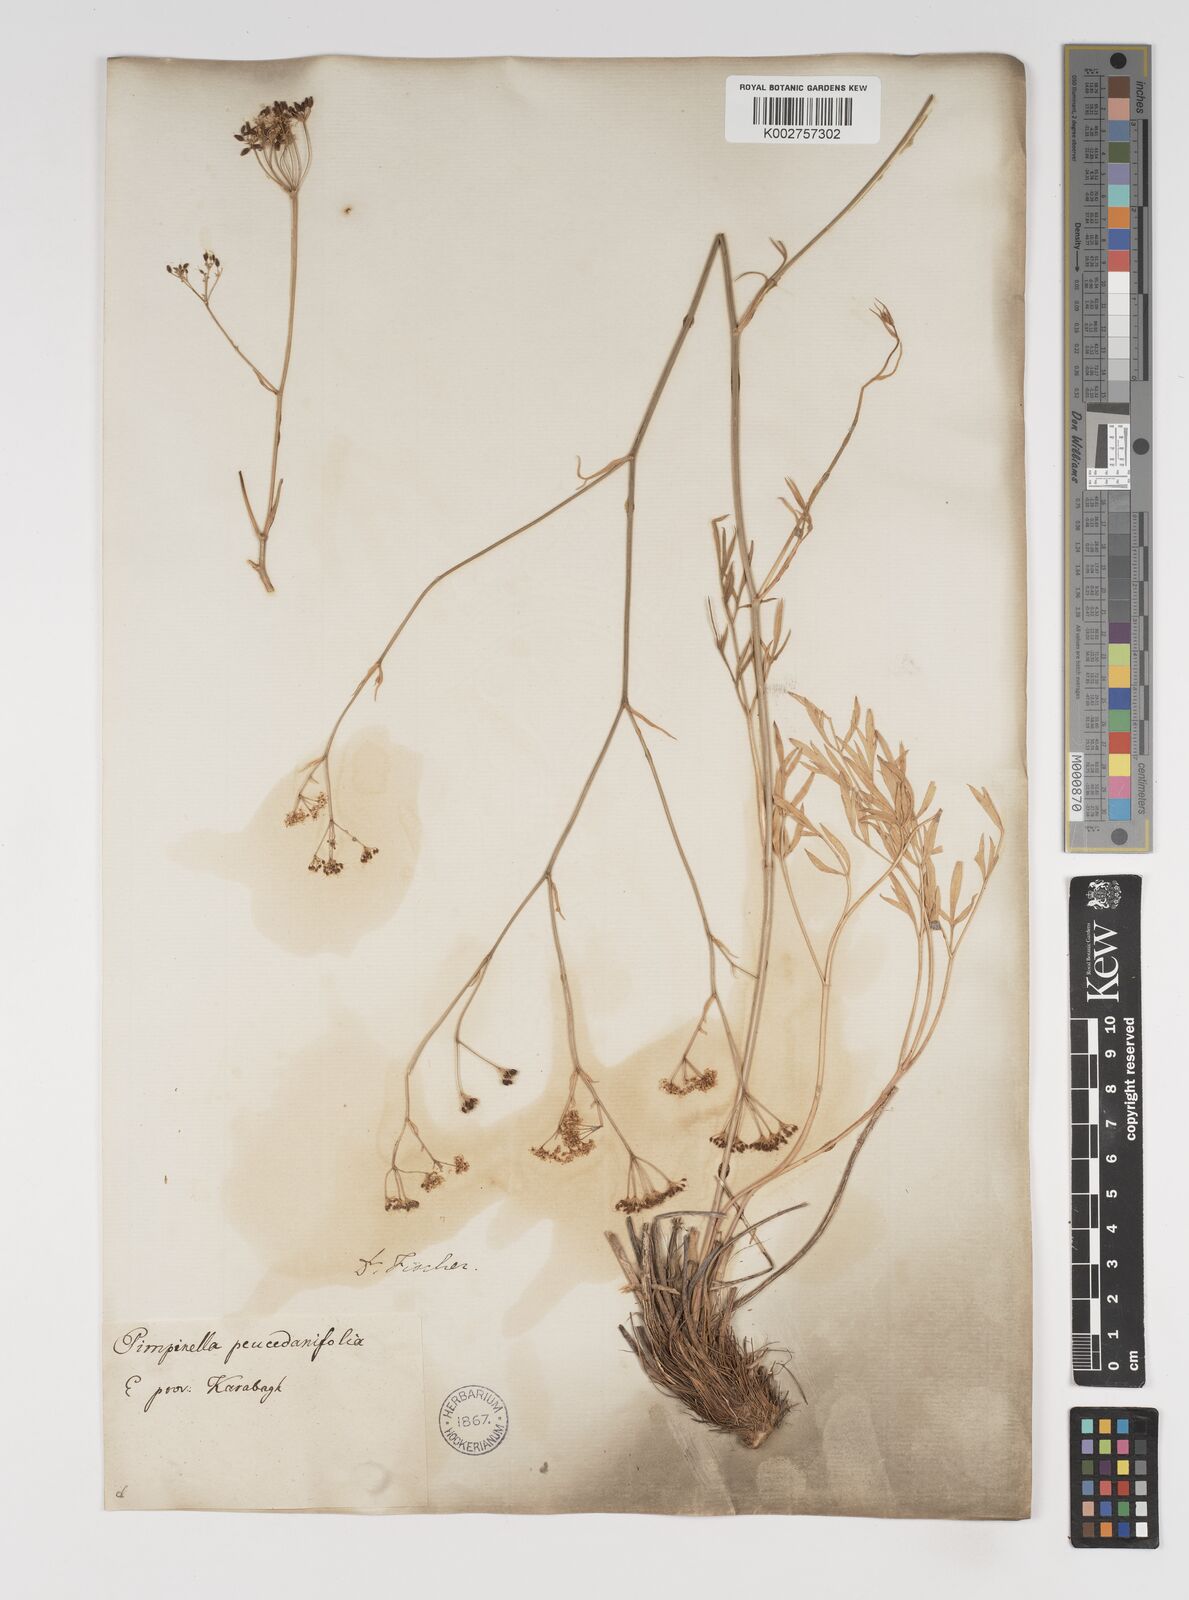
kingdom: Plantae
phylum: Tracheophyta
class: Magnoliopsida
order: Apiales
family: Apiaceae
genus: Seseli
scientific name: Seseli besserianum
